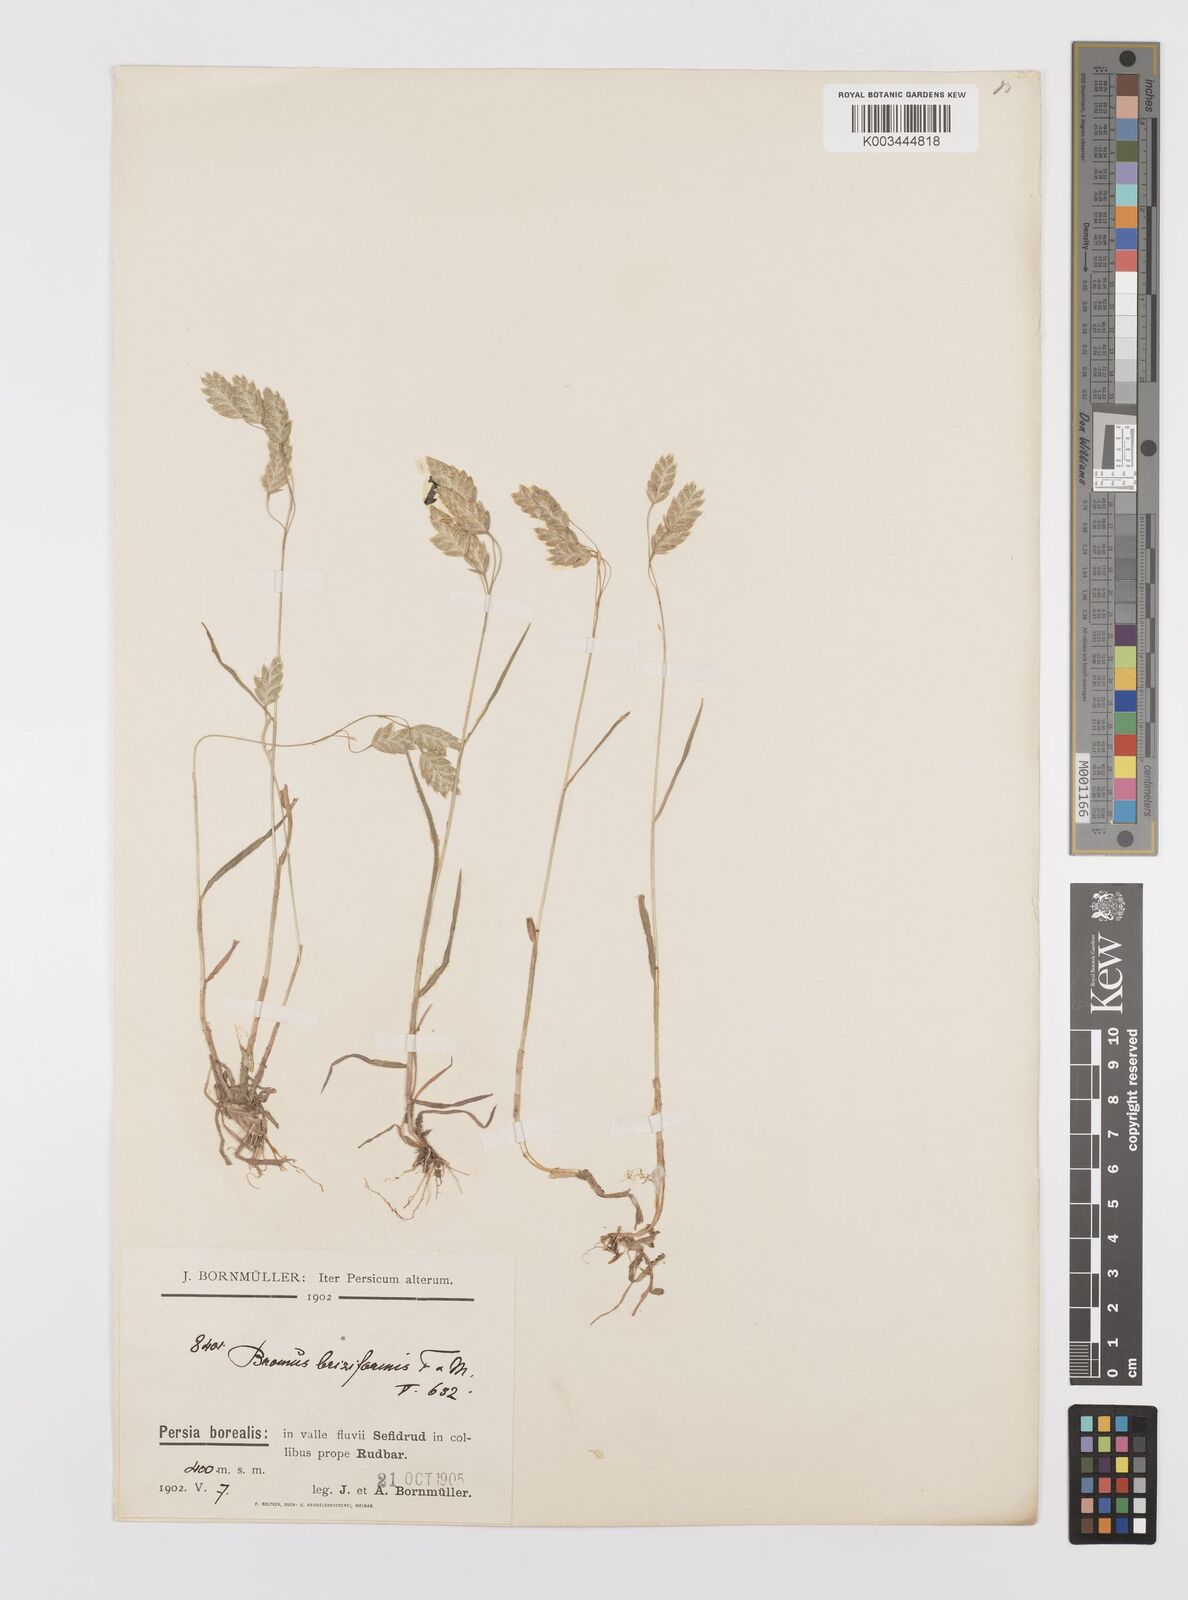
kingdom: Plantae
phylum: Tracheophyta
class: Liliopsida
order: Poales
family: Poaceae
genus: Bromus
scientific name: Bromus briziformis
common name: Rattlesnake brome
